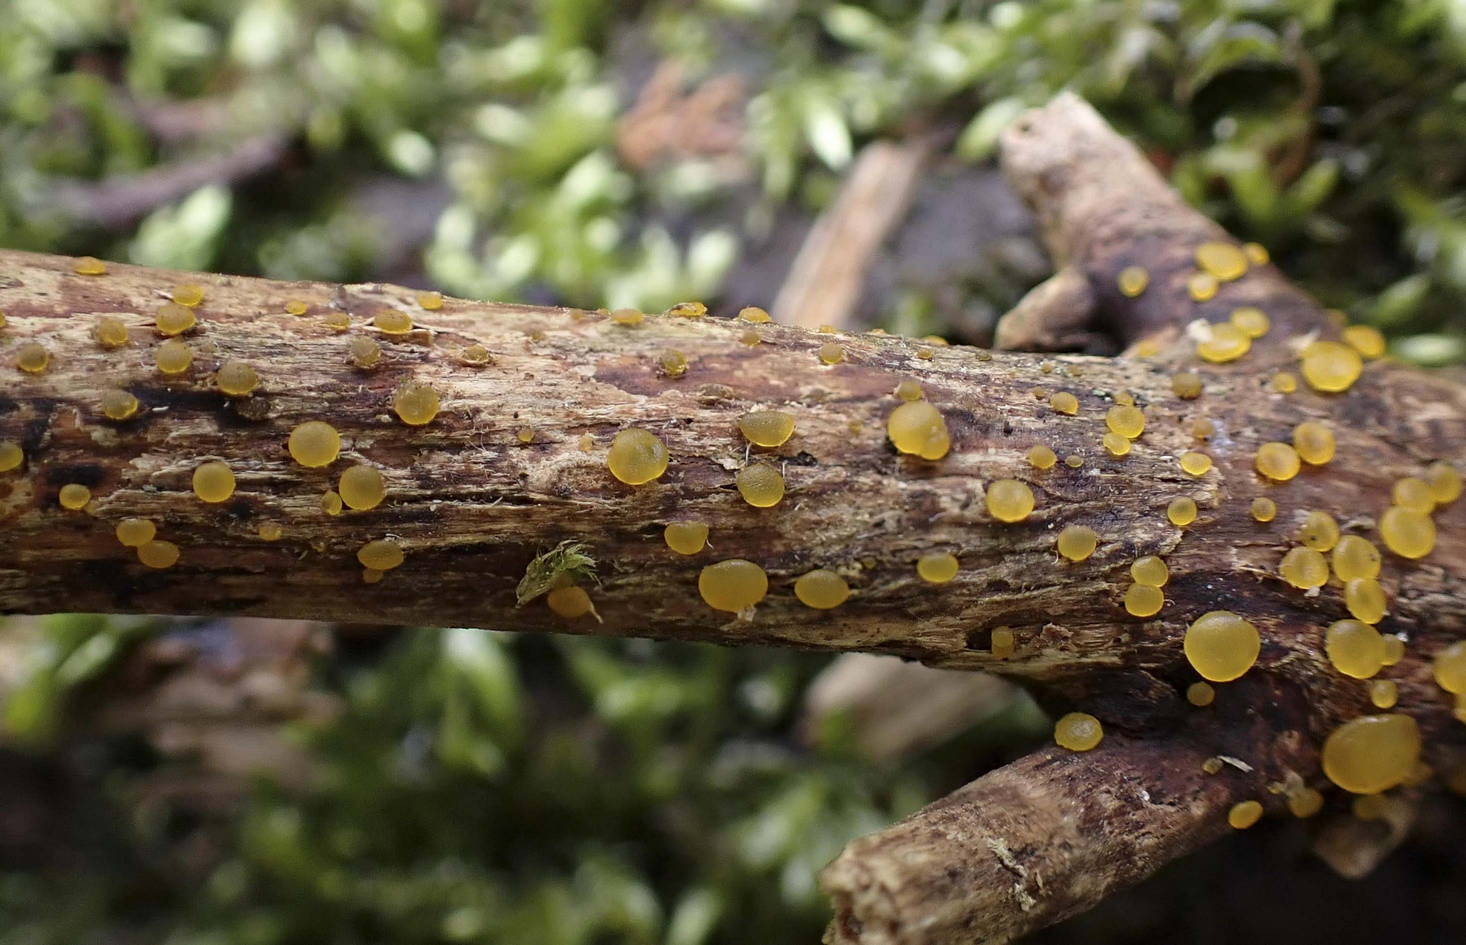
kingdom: Fungi
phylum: Basidiomycota
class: Dacrymycetes
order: Dacrymycetales
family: Dacrymycetaceae
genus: Dacrymyces
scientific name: Dacrymyces
